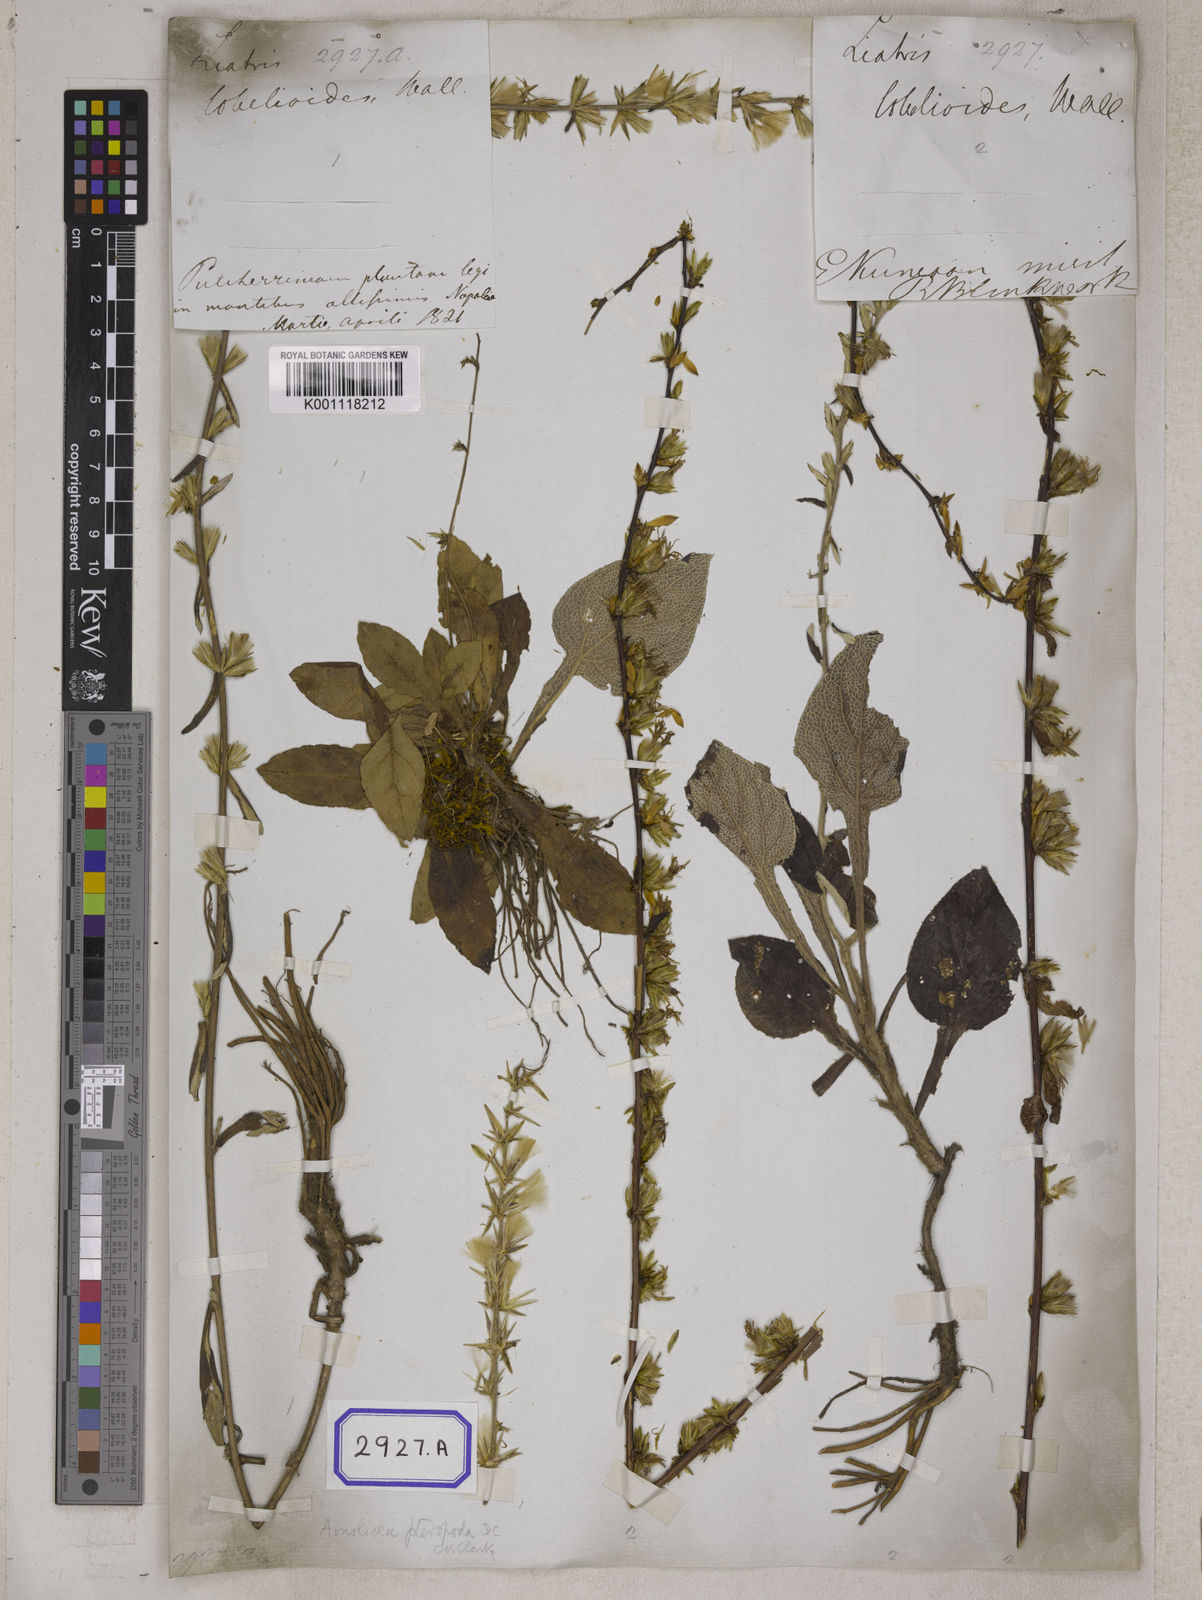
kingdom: Plantae
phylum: Tracheophyta
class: Magnoliopsida
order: Asterales
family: Asteraceae
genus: Vernonia
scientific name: Vernonia lobelioides
